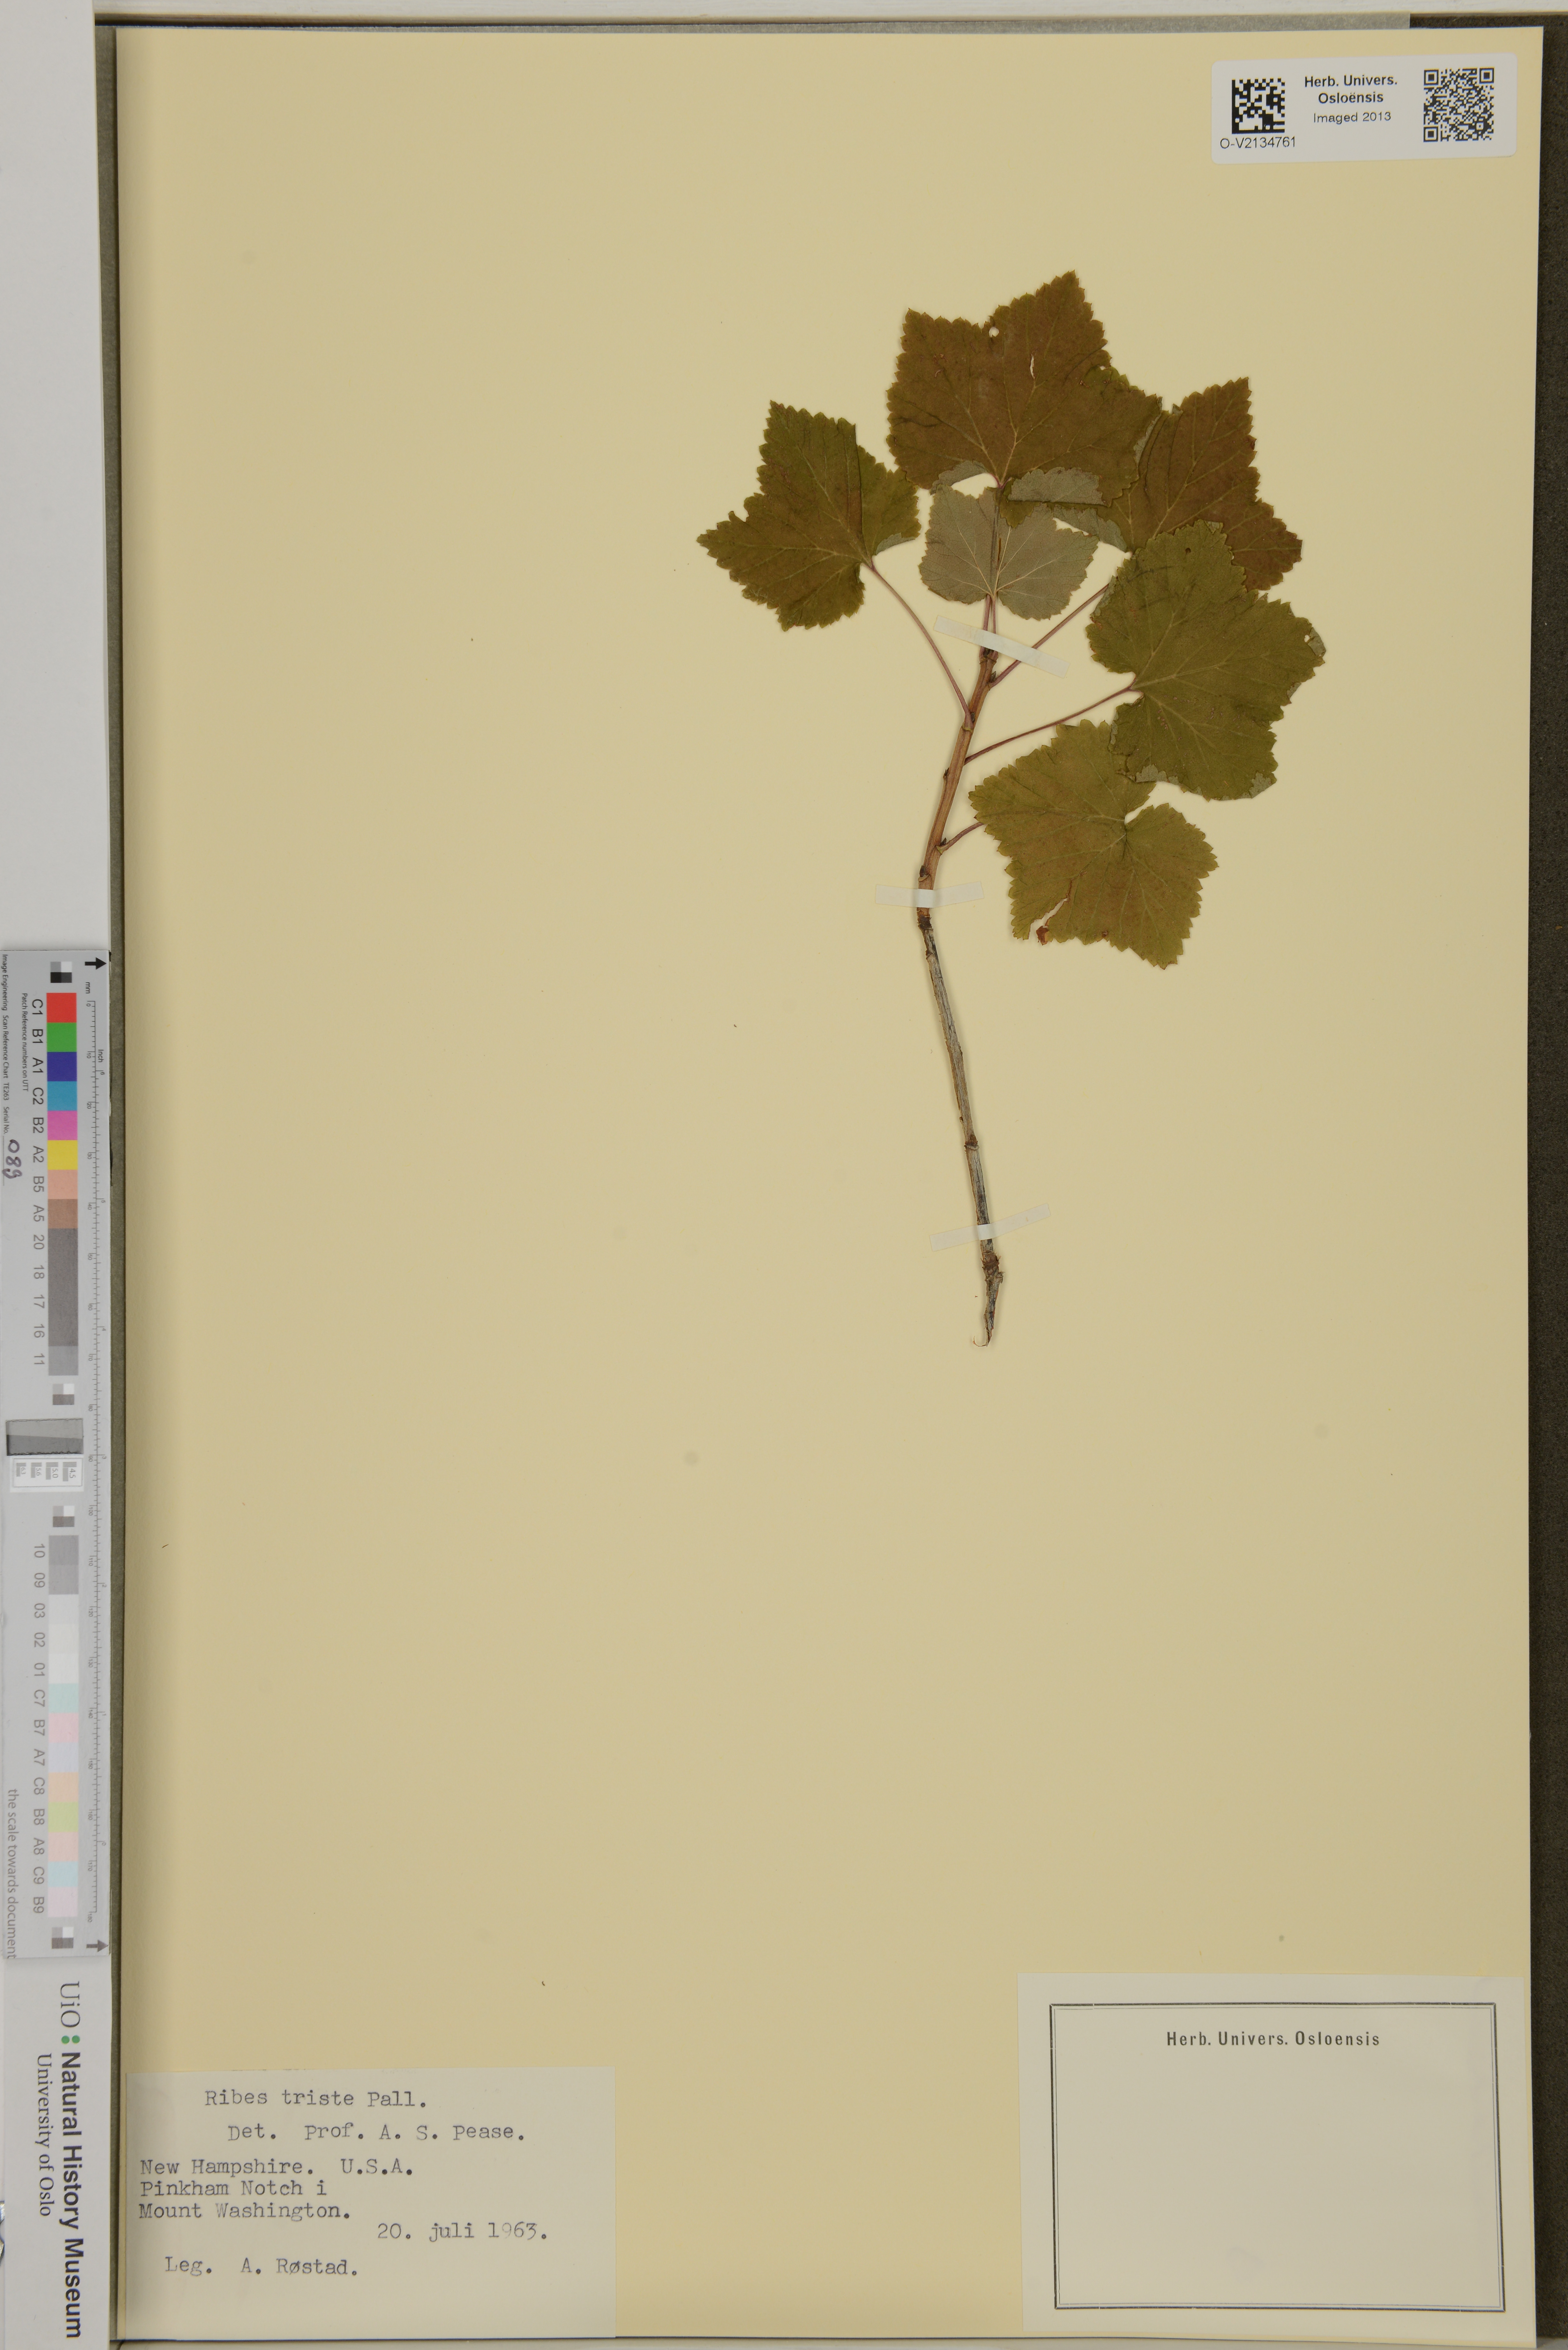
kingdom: Plantae
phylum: Tracheophyta
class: Magnoliopsida
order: Saxifragales
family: Grossulariaceae
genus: Ribes
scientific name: Ribes triste
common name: Swamp red currant
